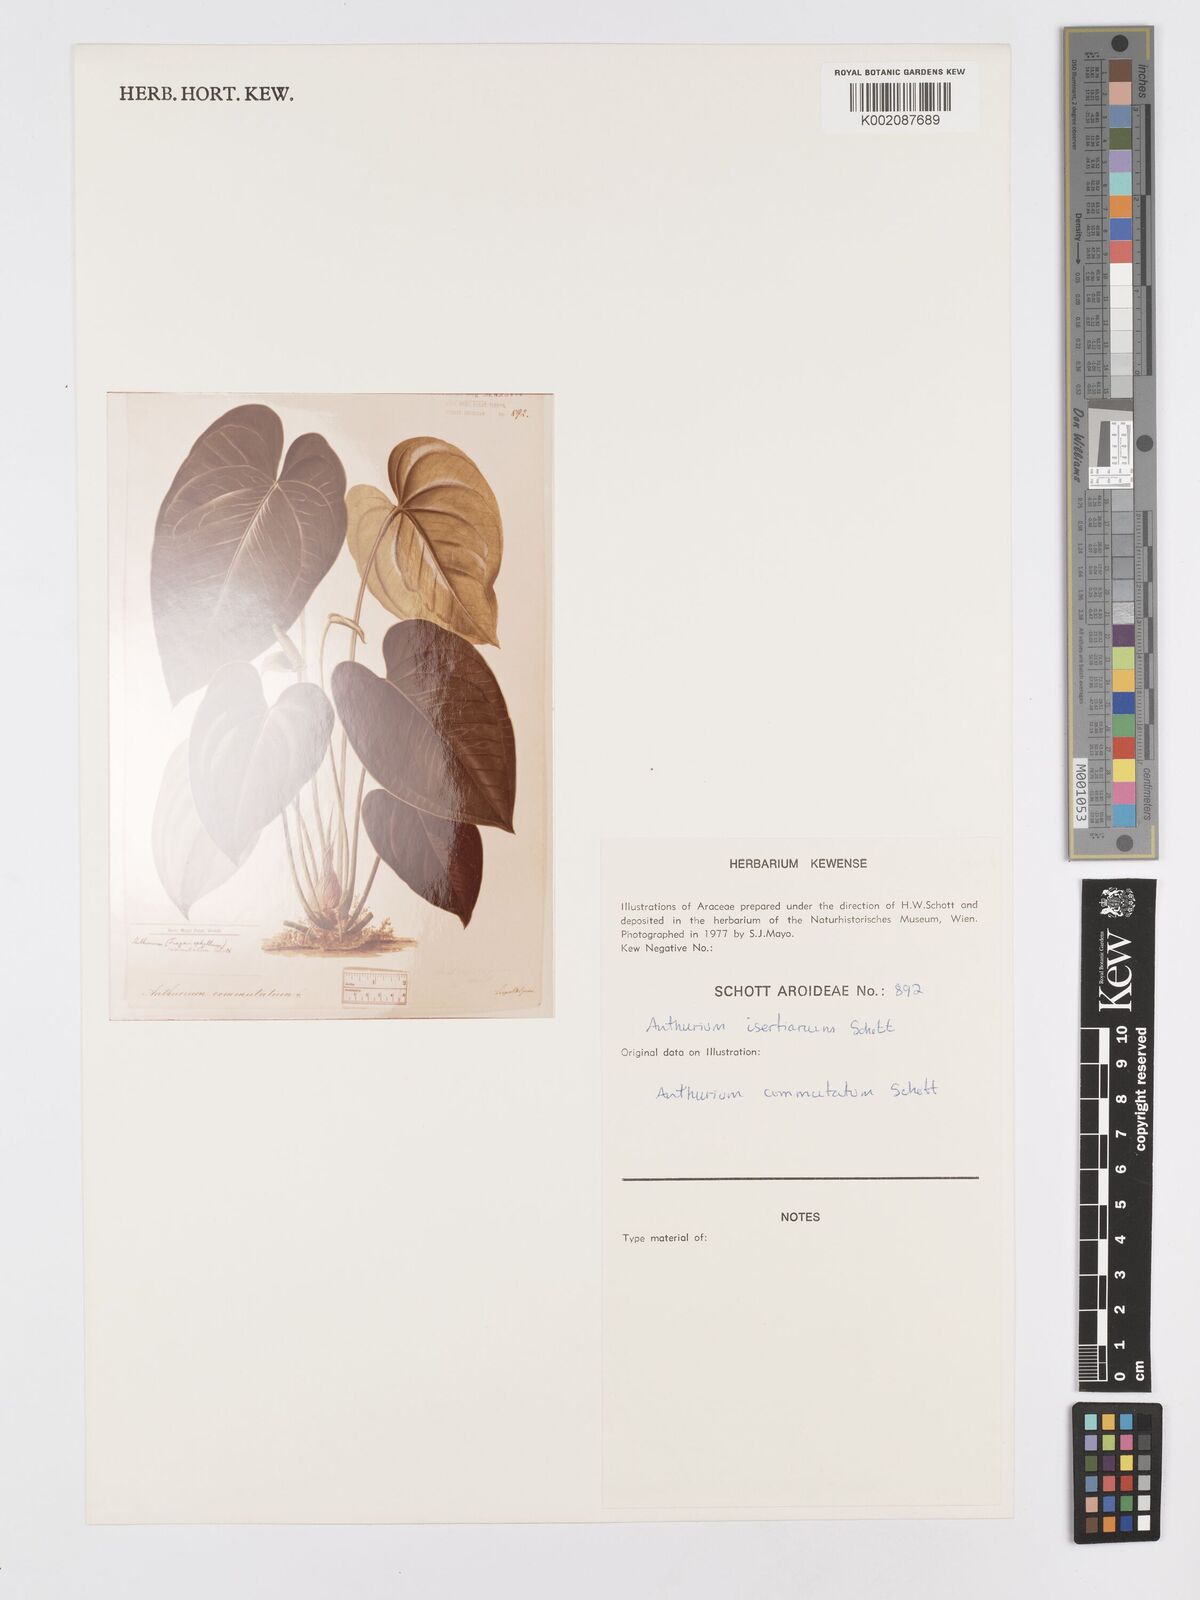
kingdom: Plantae
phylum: Tracheophyta
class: Liliopsida
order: Alismatales
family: Araceae
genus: Anthurium
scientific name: Anthurium cordatum
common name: Monkey tail
